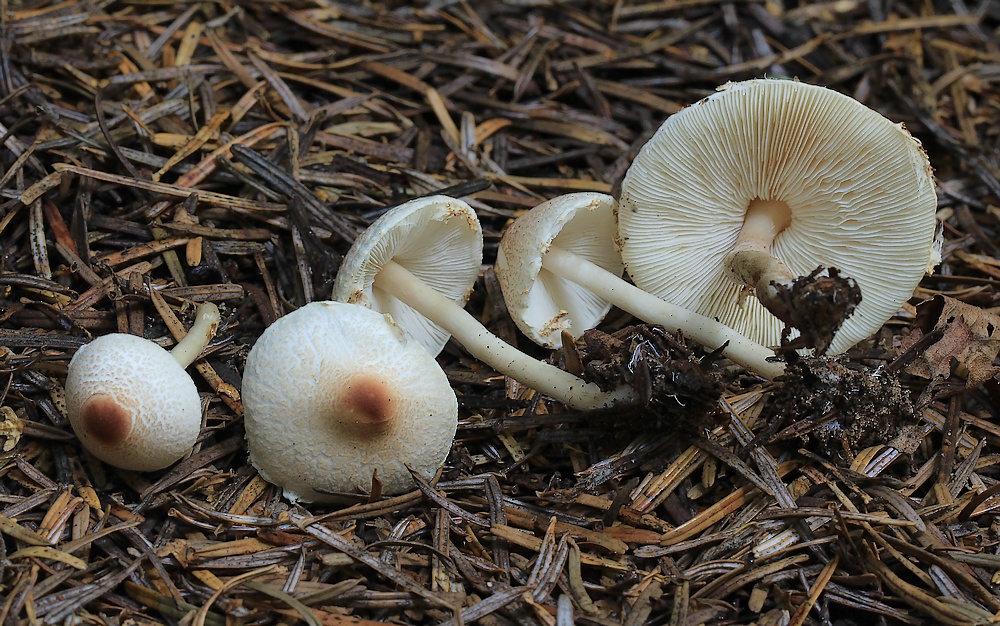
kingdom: Fungi
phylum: Basidiomycota
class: Agaricomycetes
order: Agaricales
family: Agaricaceae
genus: Lepiota
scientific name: Lepiota cristata
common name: stinkende parasolhat
